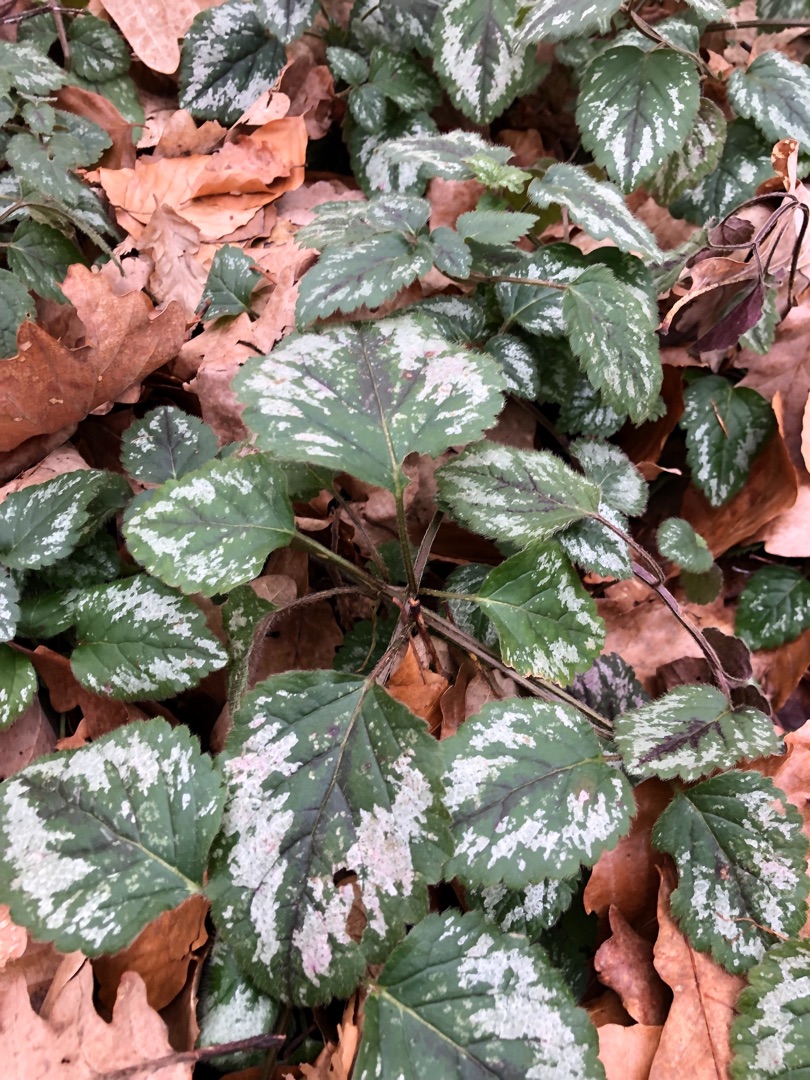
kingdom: Plantae
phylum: Tracheophyta
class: Magnoliopsida
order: Lamiales
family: Lamiaceae
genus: Lamium
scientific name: Lamium galeobdolon
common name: Have-guldnælde
